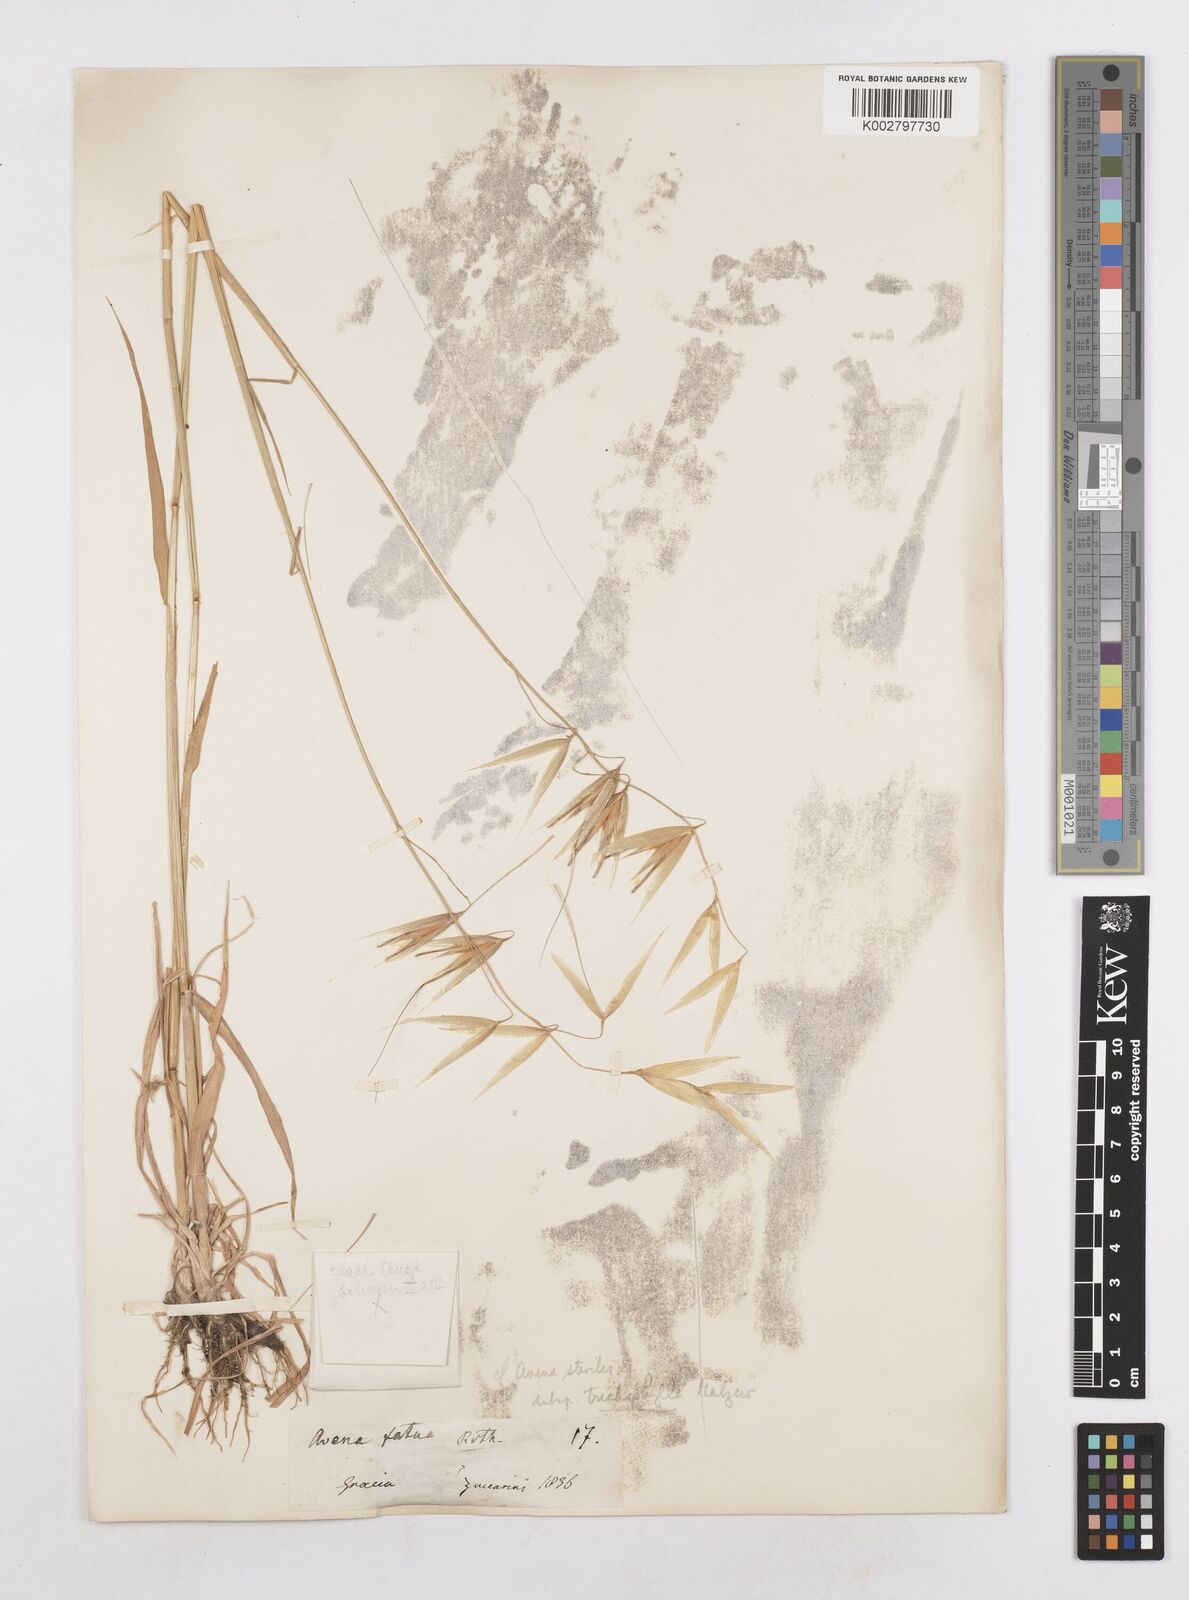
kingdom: Plantae
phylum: Tracheophyta
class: Liliopsida
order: Poales
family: Poaceae
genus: Avena
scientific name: Avena sterilis
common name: Animated oat
